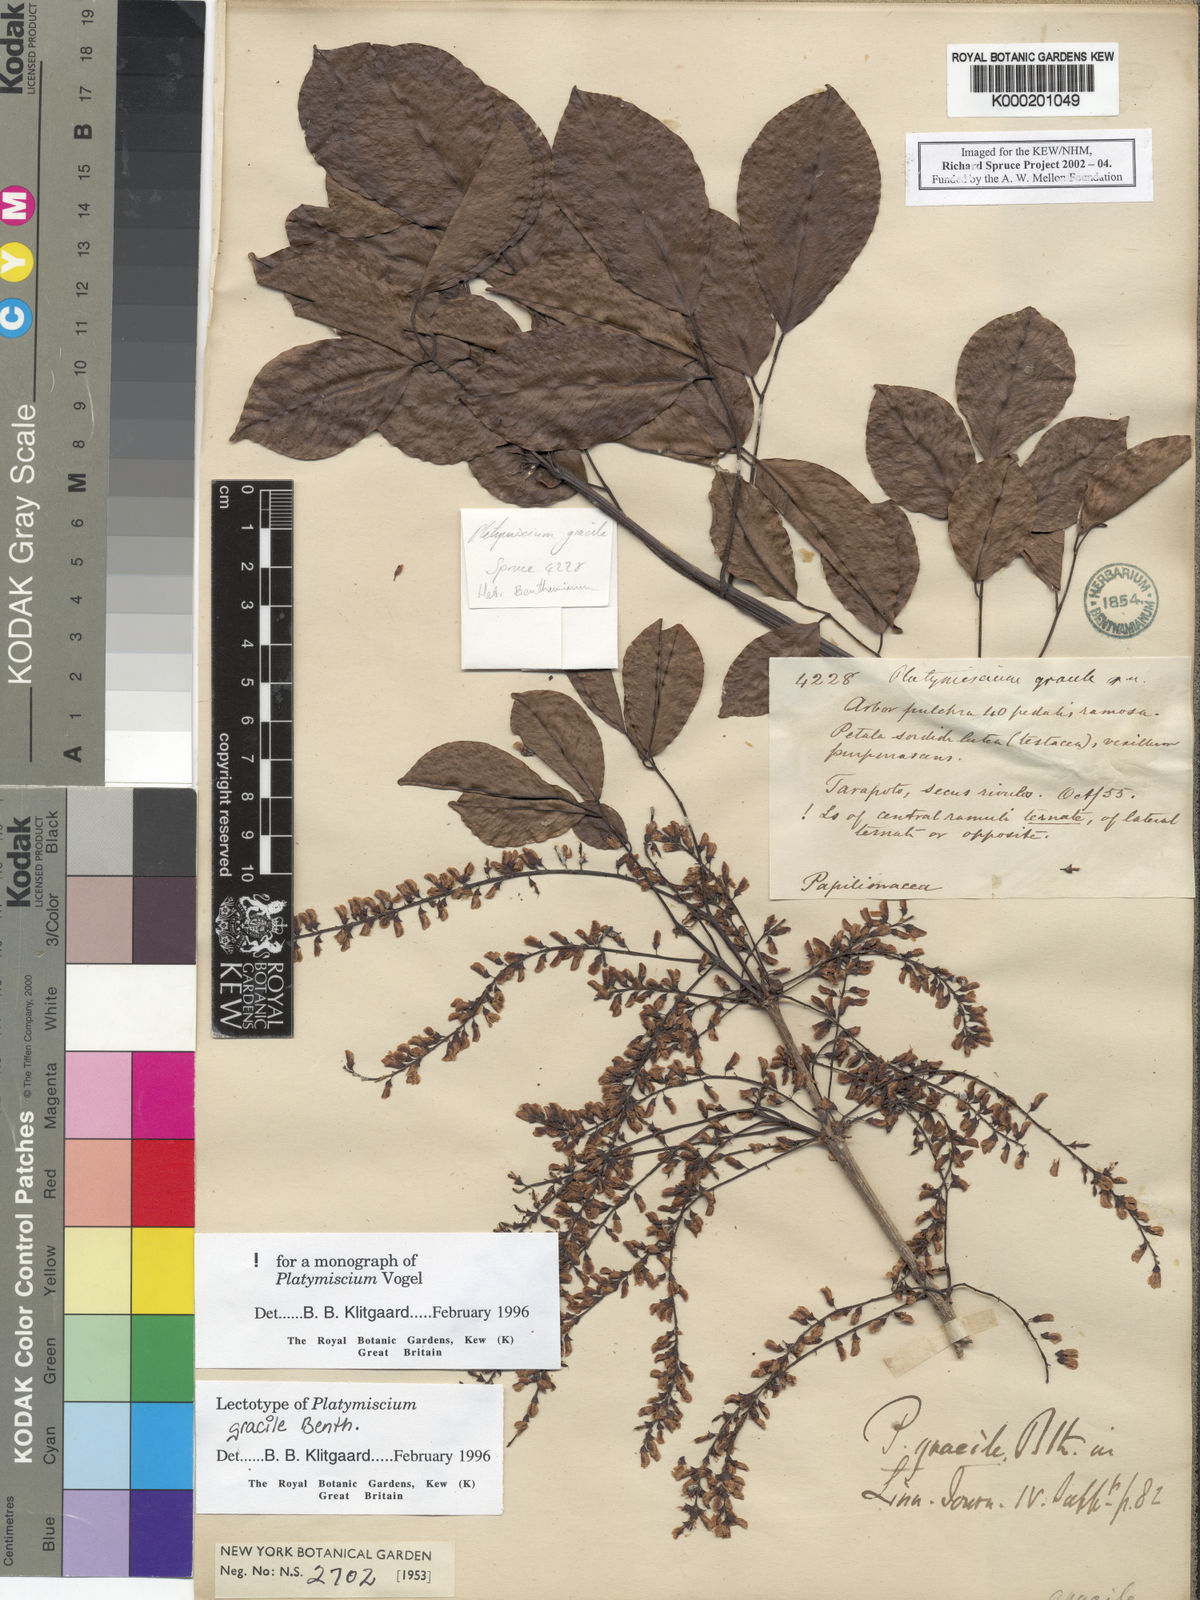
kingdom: Plantae
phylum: Tracheophyta
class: Magnoliopsida
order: Fabales
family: Fabaceae
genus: Platymiscium
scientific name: Platymiscium gracile
